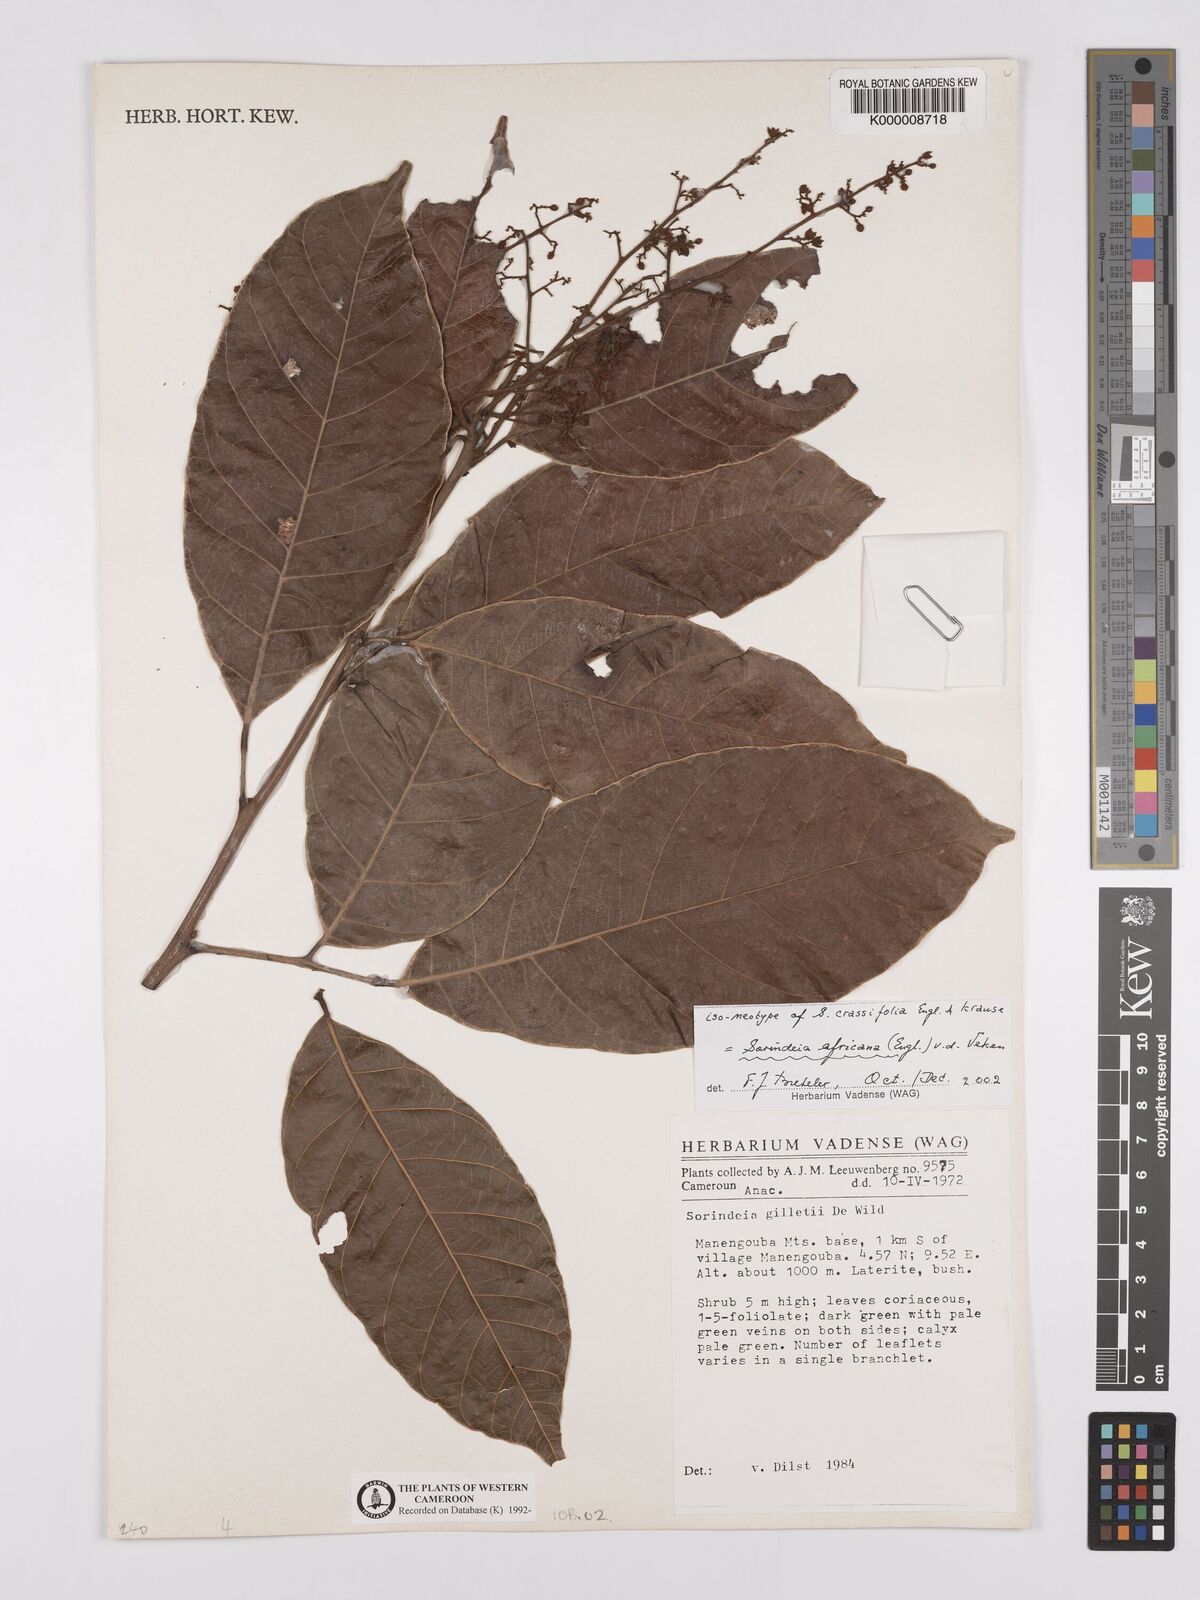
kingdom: Plantae
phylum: Tracheophyta
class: Magnoliopsida
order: Sapindales
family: Anacardiaceae
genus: Sorindeia
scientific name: Sorindeia africana
